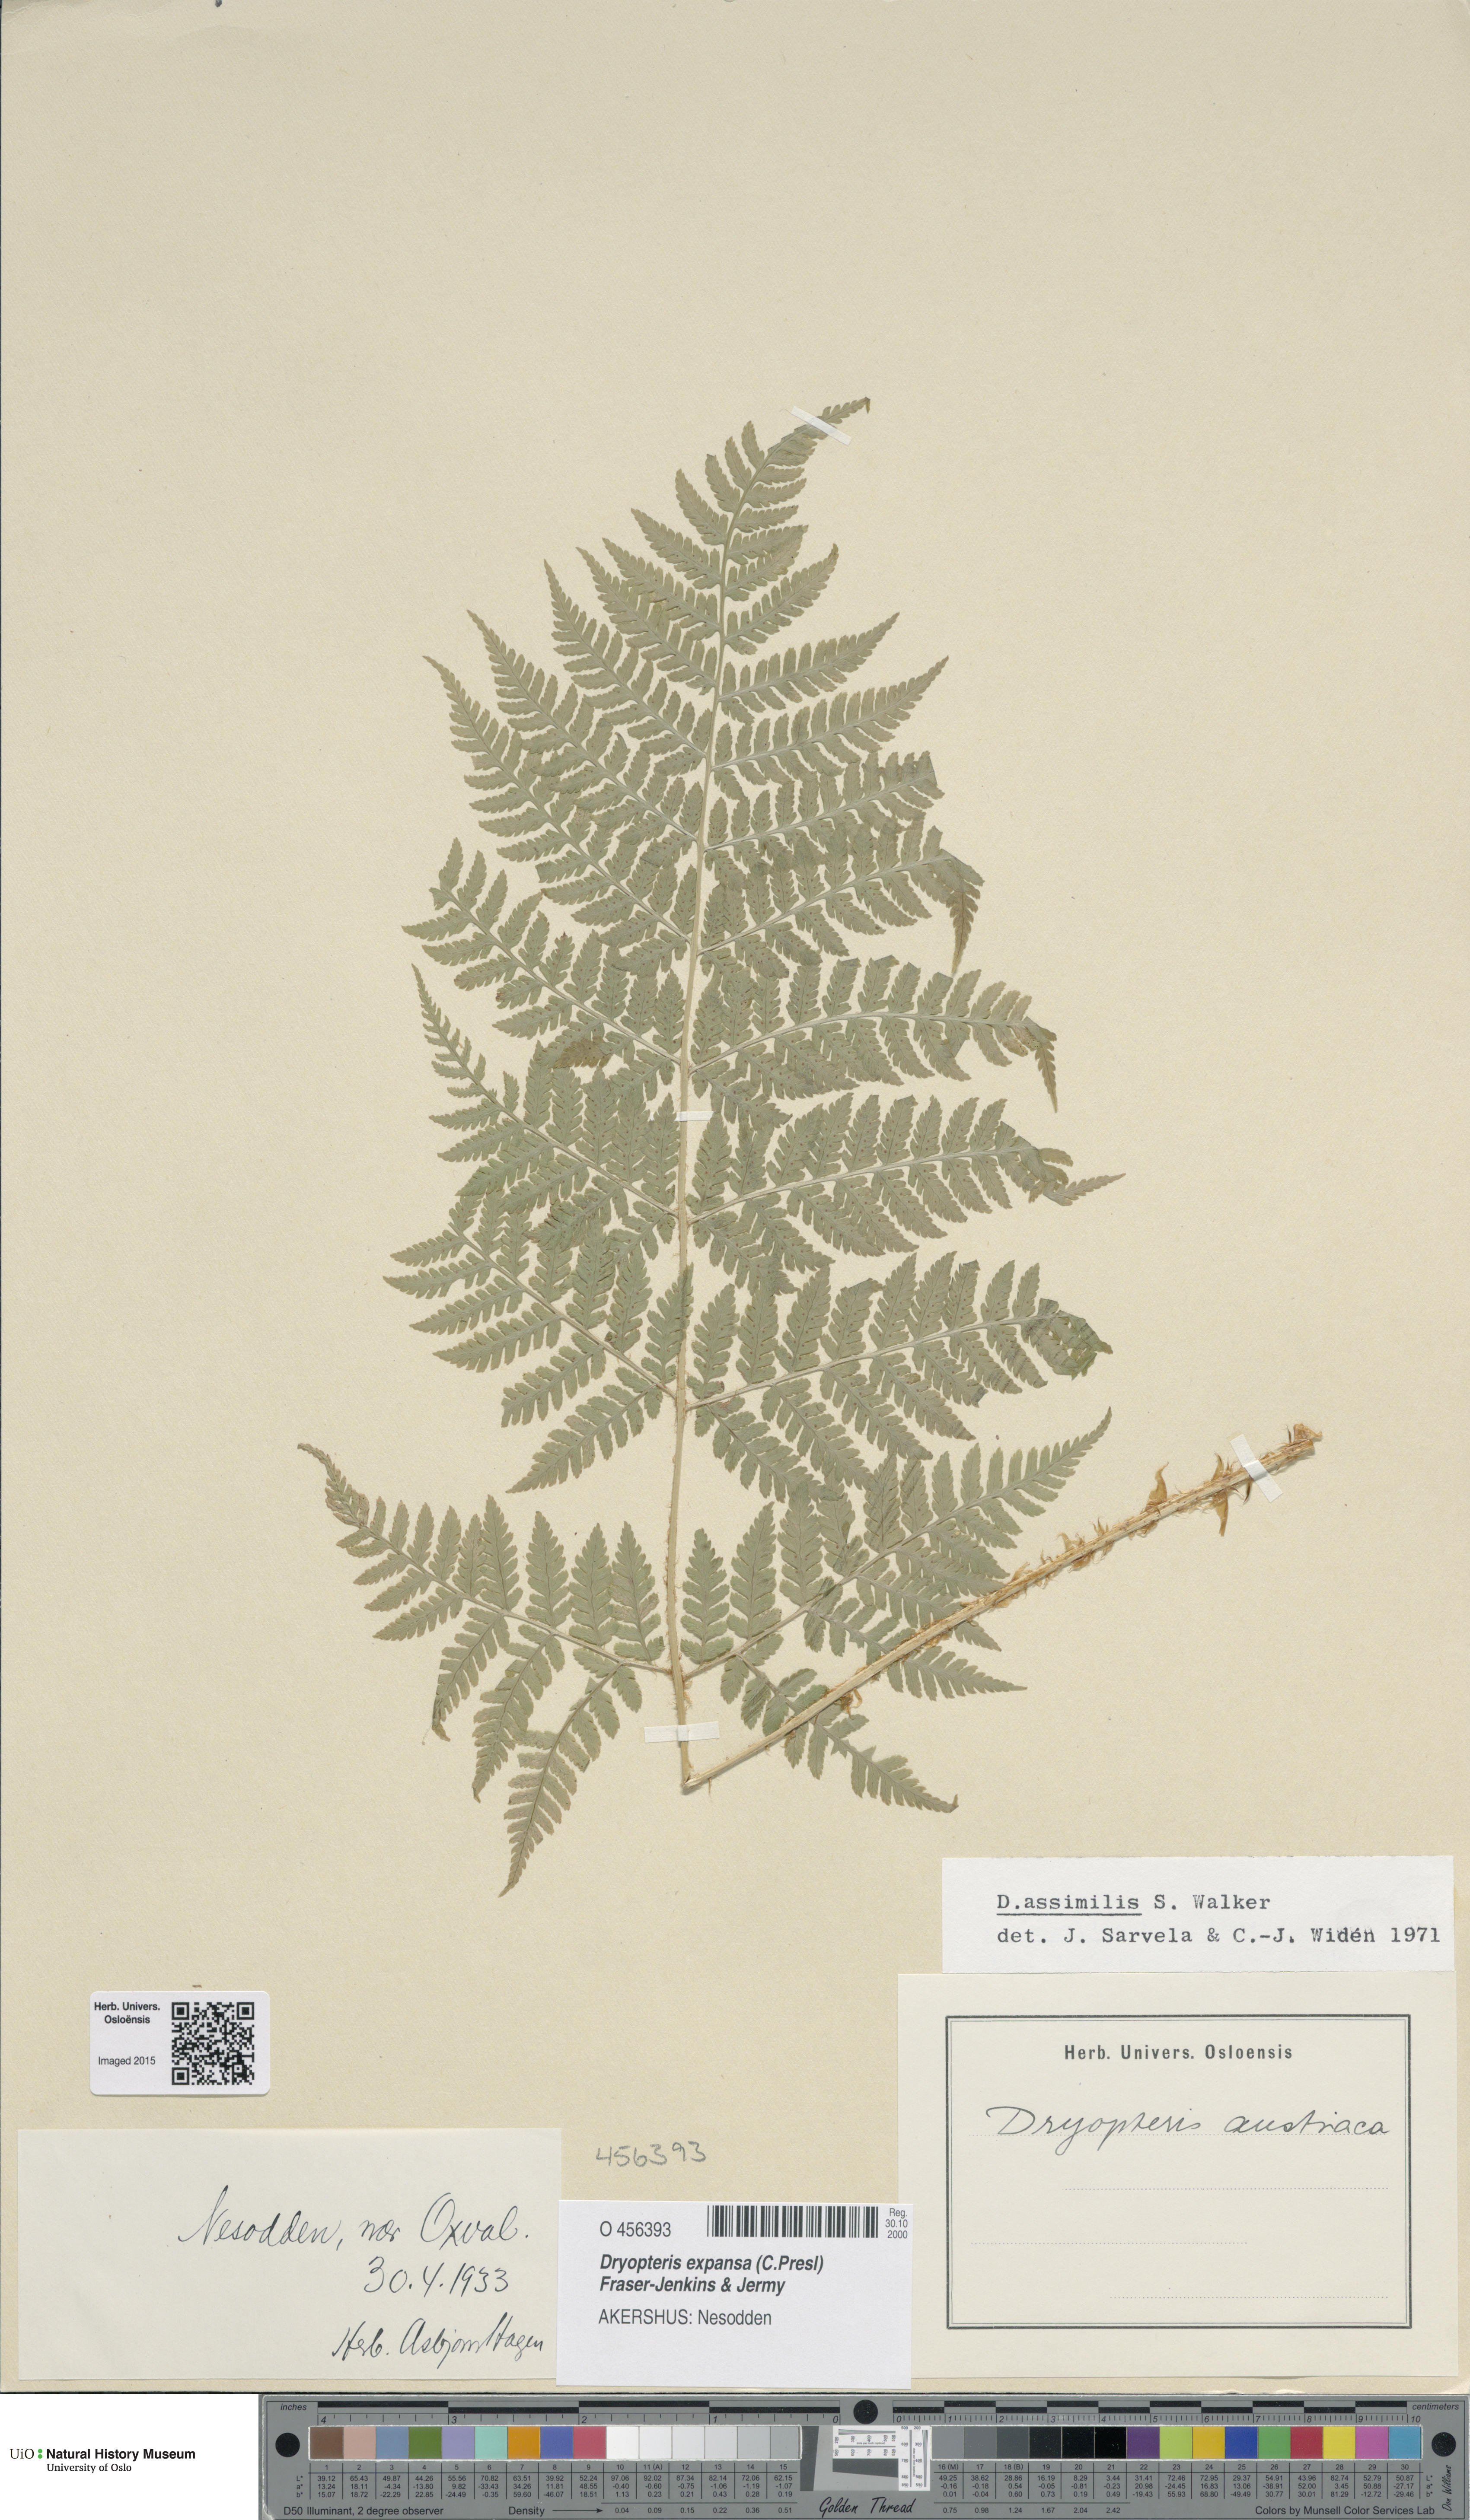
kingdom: Plantae
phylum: Tracheophyta
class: Polypodiopsida
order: Polypodiales
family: Dryopteridaceae
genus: Dryopteris
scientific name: Dryopteris expansa
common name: Northern buckler fern
